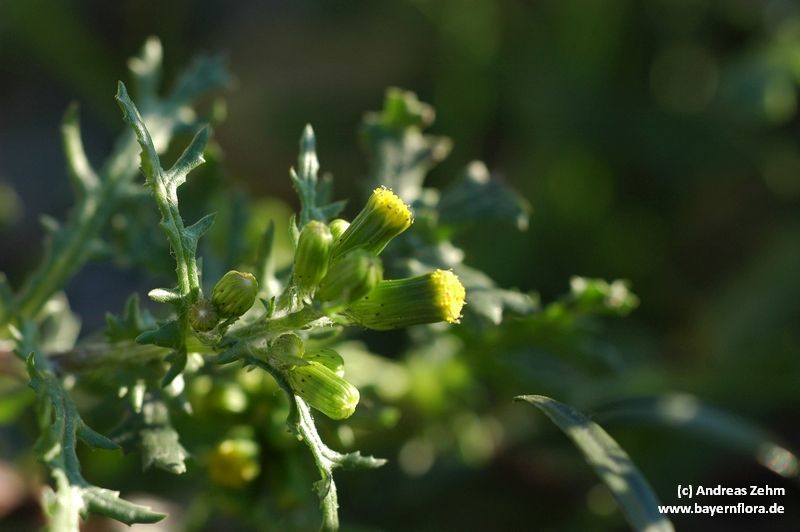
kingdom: Plantae
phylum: Tracheophyta
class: Magnoliopsida
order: Asterales
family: Asteraceae
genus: Senecio
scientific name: Senecio vulgaris
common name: Old-man-in-the-spring
